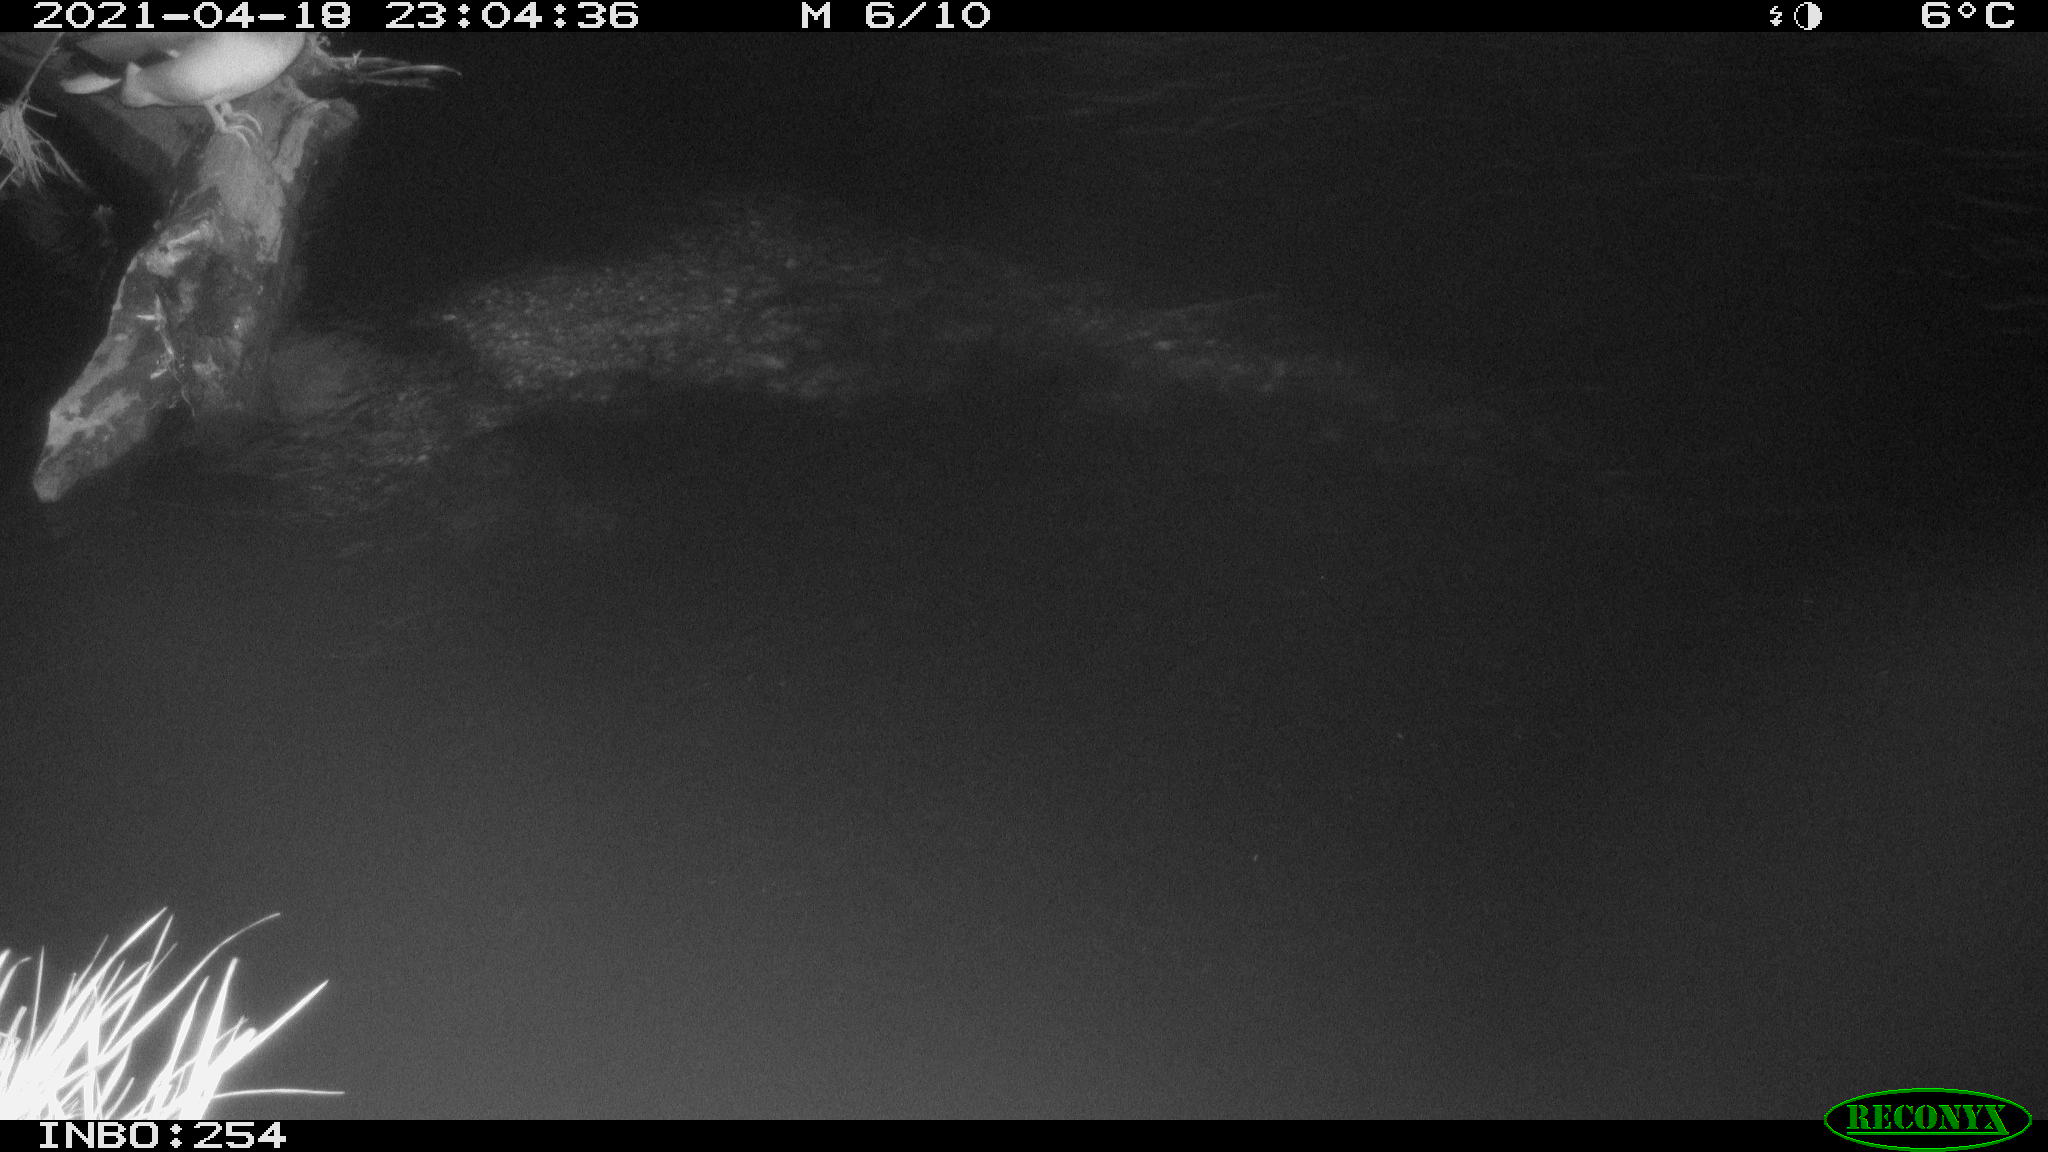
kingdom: Animalia
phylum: Chordata
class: Aves
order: Anseriformes
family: Anatidae
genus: Anas
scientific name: Anas
